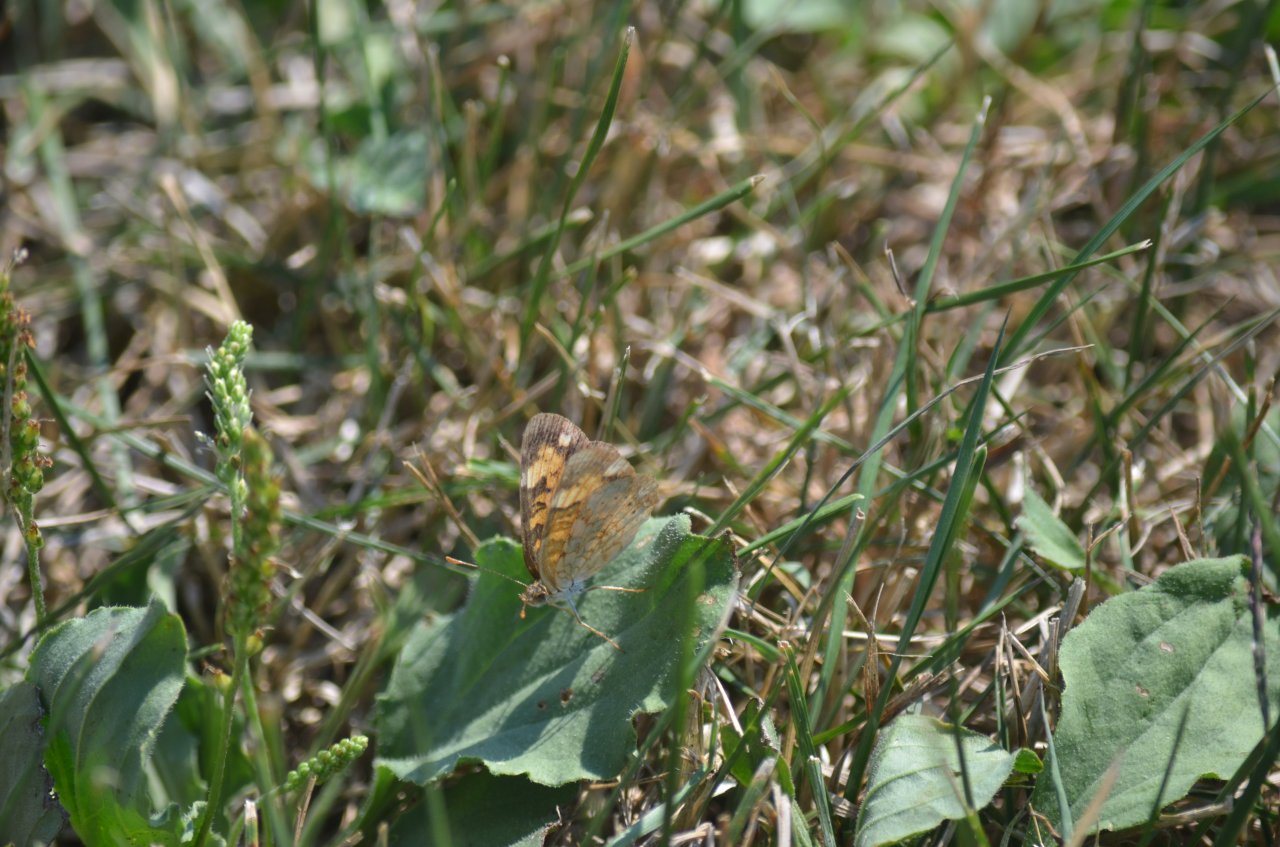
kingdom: Animalia
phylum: Arthropoda
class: Insecta
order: Lepidoptera
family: Nymphalidae
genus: Phyciodes
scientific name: Phyciodes tharos
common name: Northern Crescent
